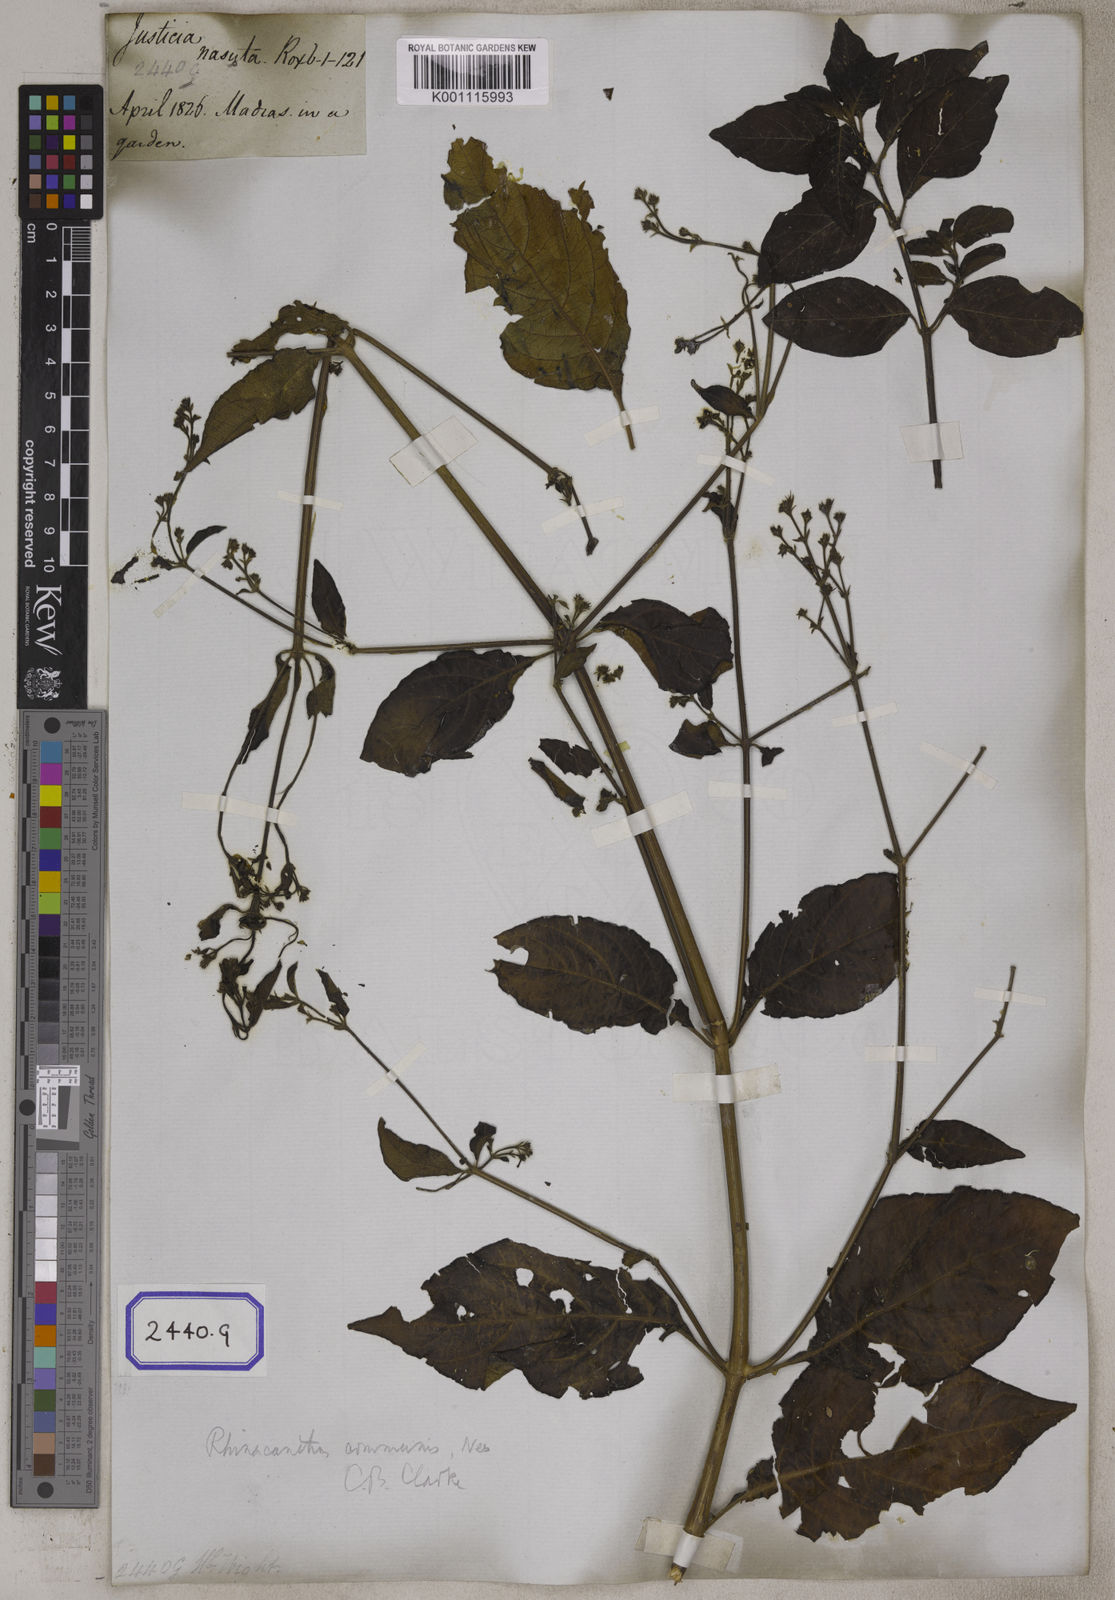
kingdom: Plantae
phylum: Tracheophyta
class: Magnoliopsida
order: Lamiales
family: Acanthaceae
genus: Rhinacanthus
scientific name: Rhinacanthus nasutus
